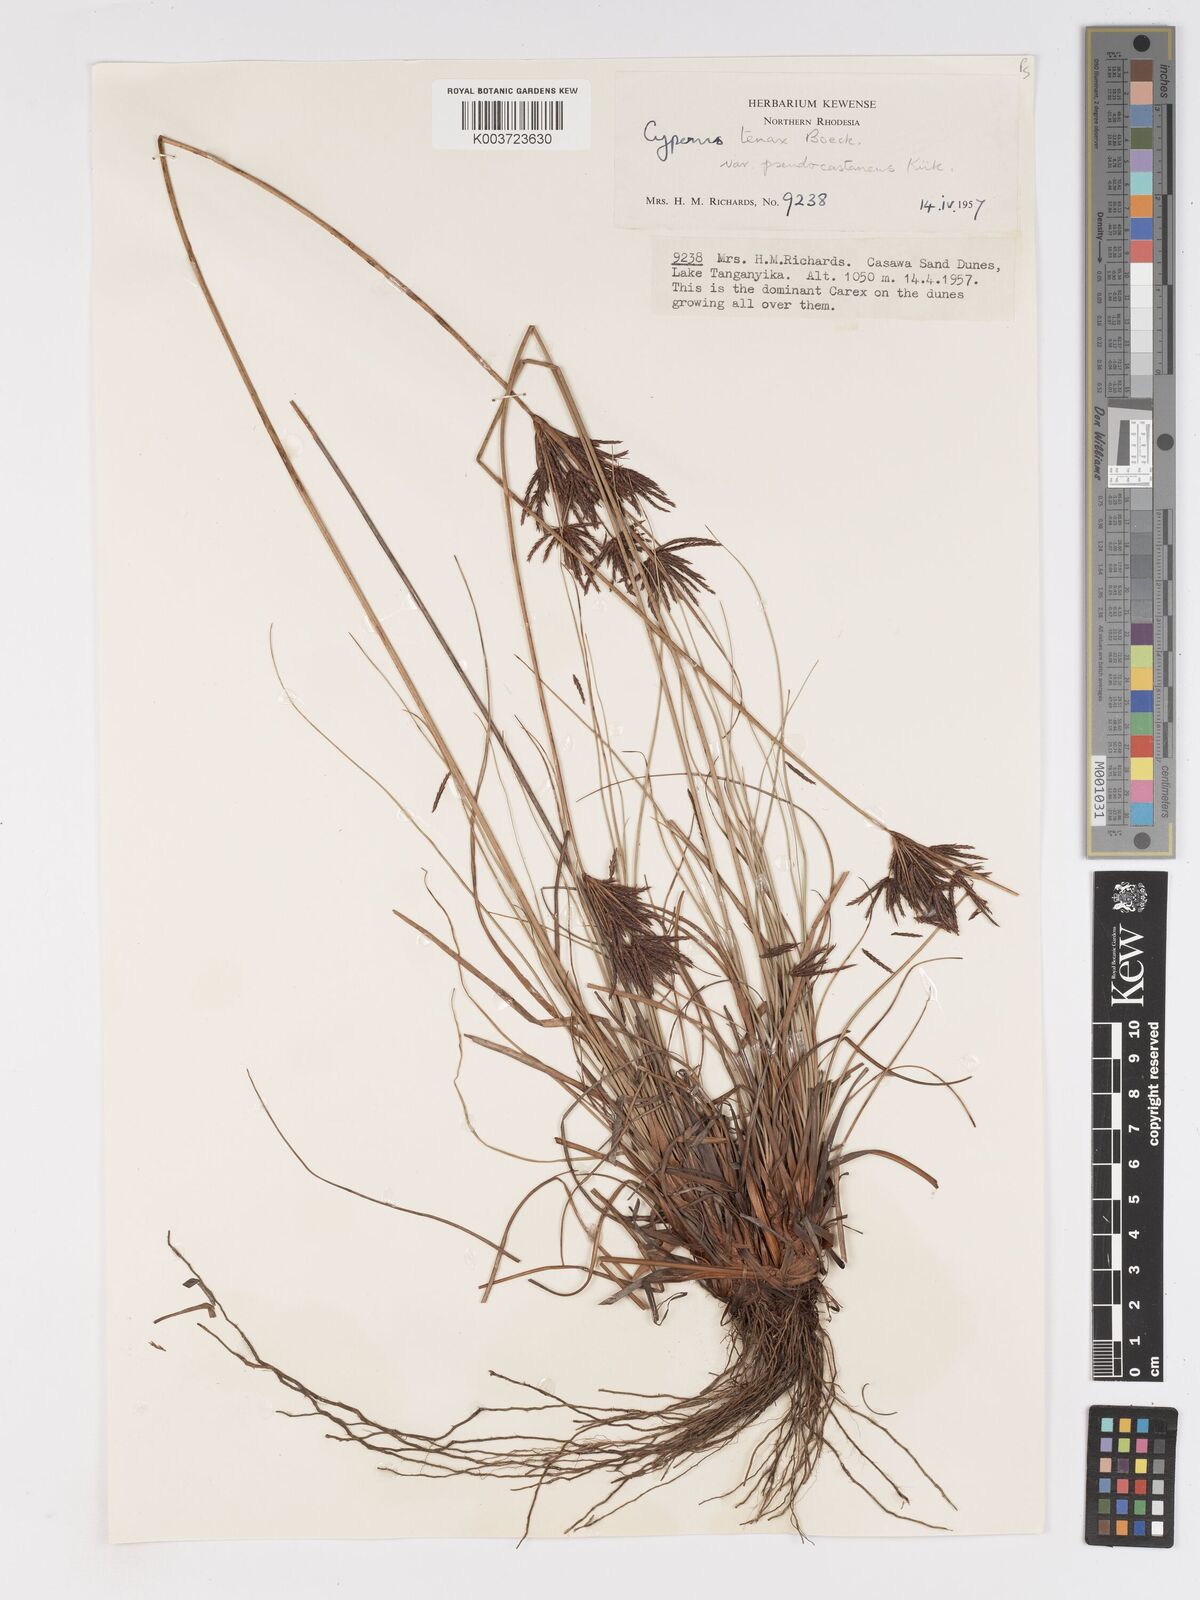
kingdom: Plantae
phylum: Tracheophyta
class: Liliopsida
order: Poales
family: Cyperaceae
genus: Cyperus
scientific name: Cyperus tenax
